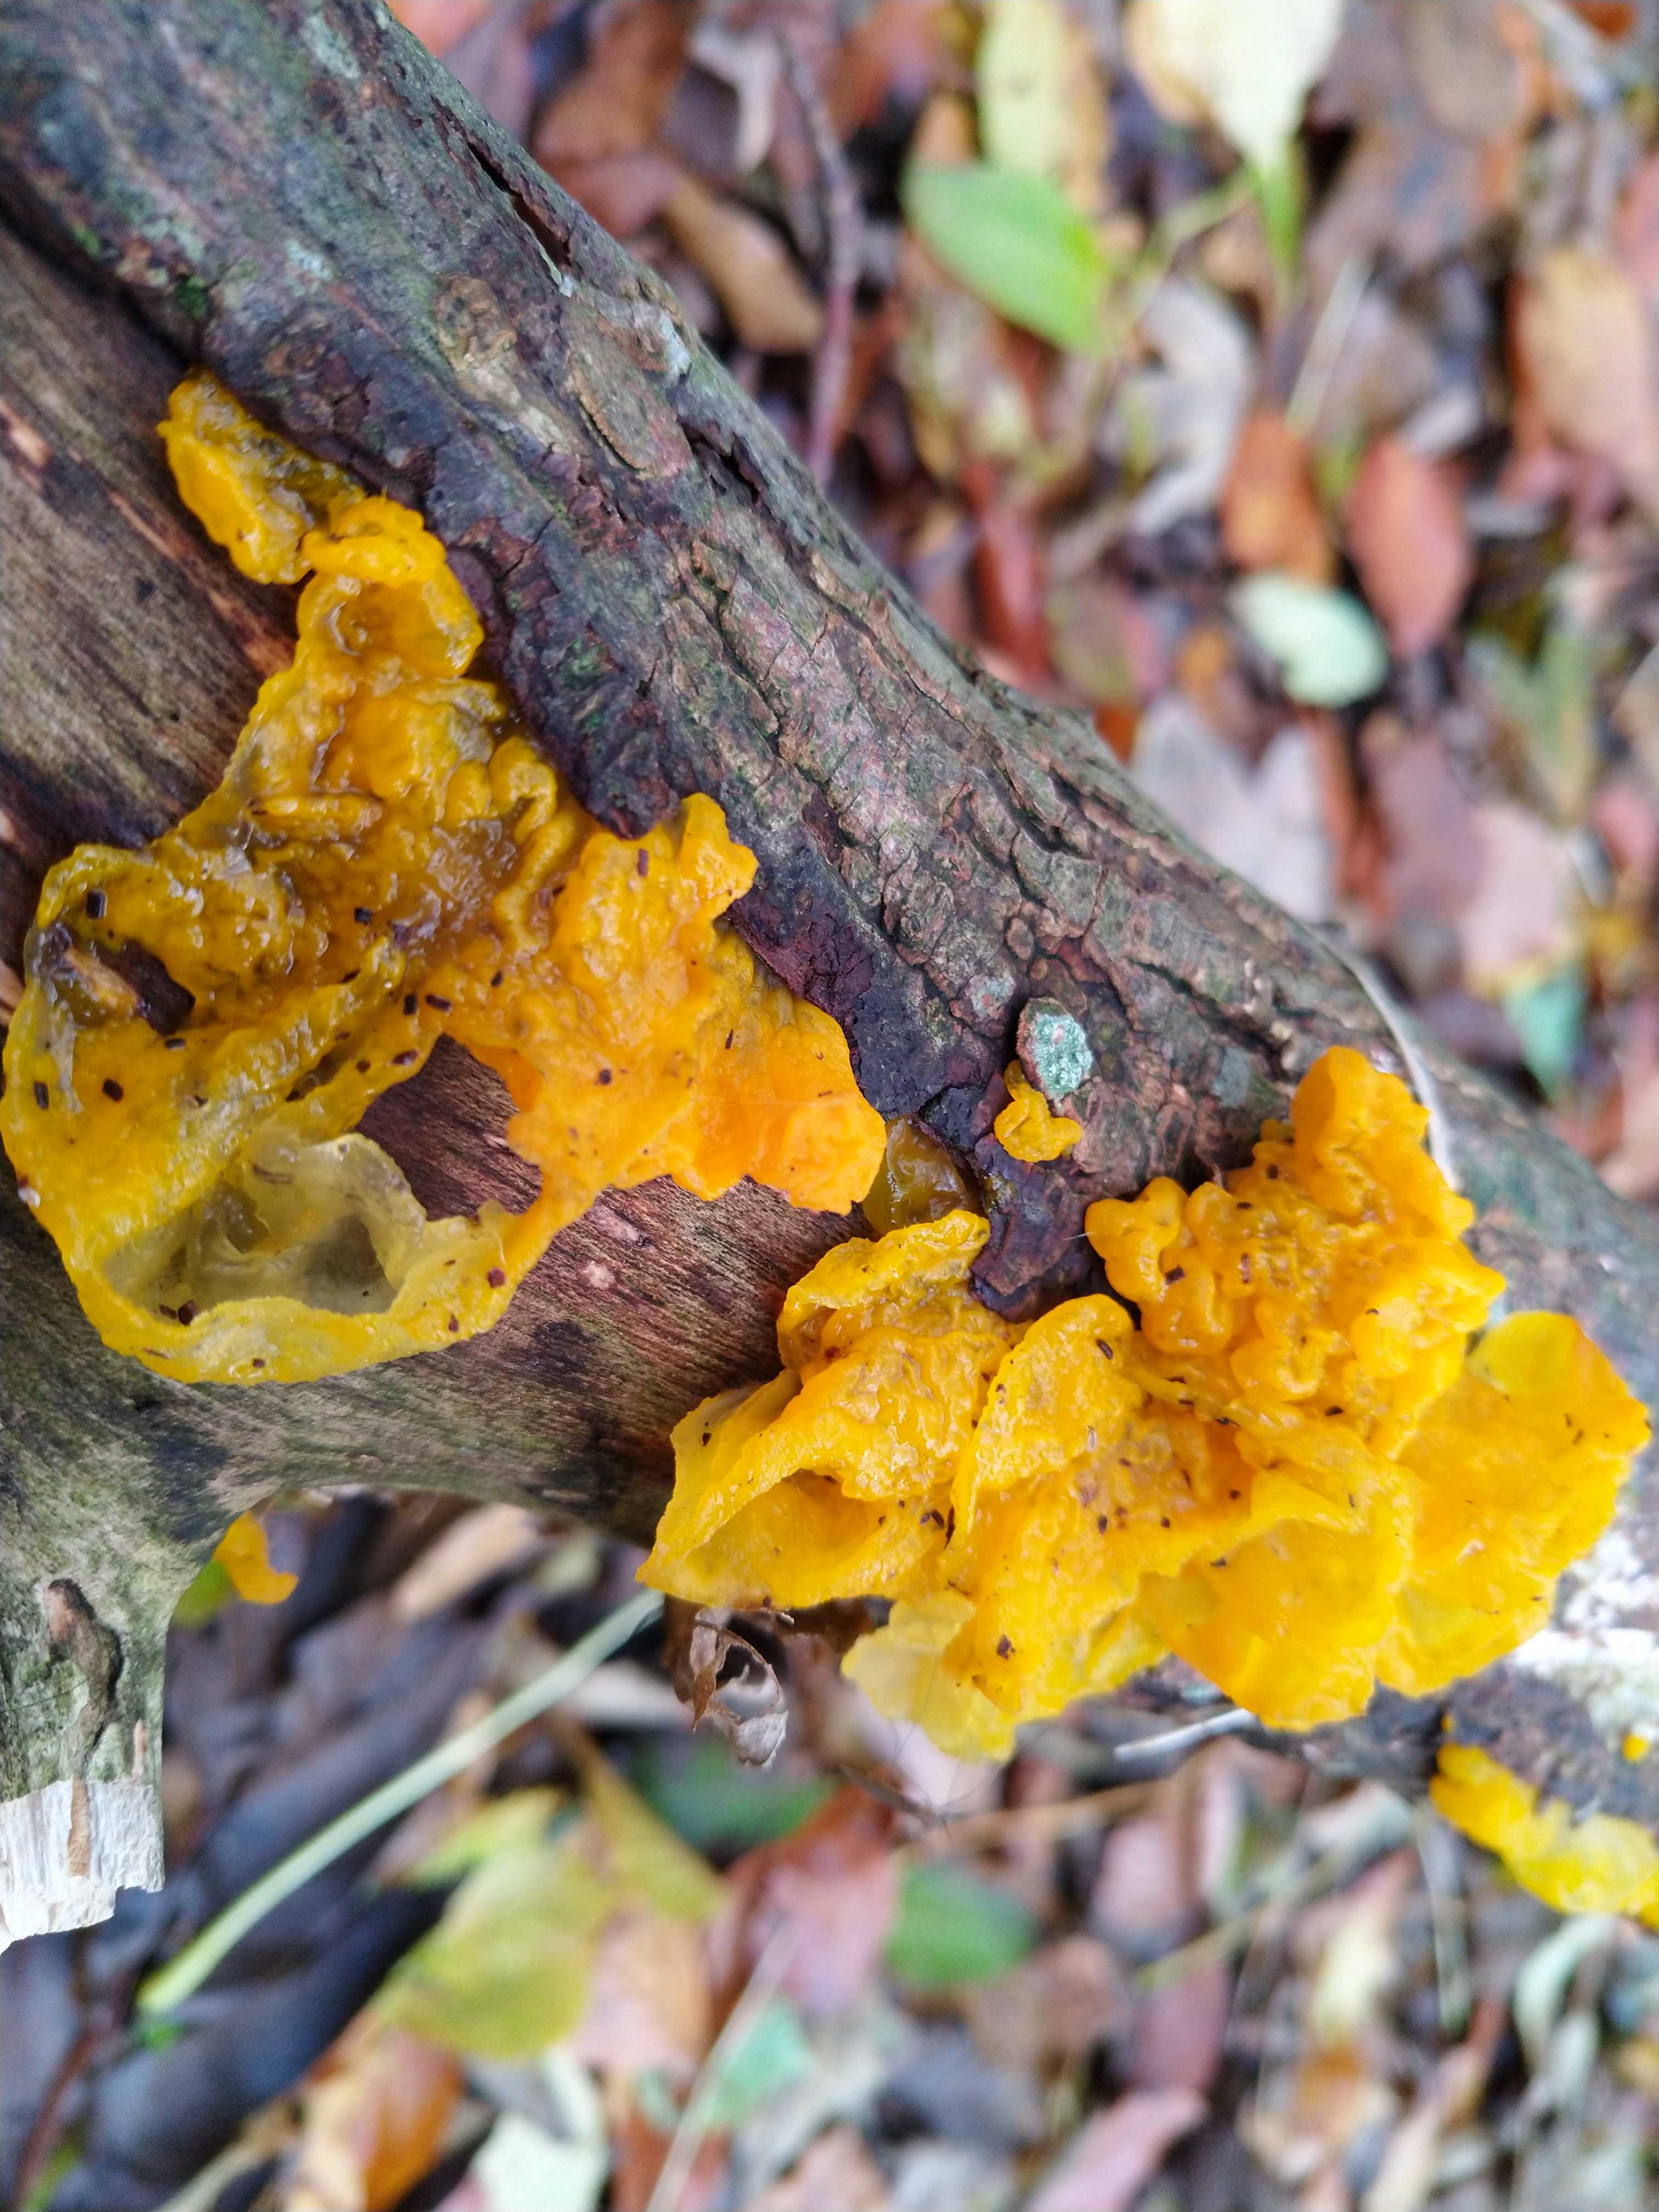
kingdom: Fungi
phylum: Basidiomycota
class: Tremellomycetes
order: Tremellales
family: Tremellaceae
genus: Tremella
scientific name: Tremella mesenterica
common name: gul bævresvamp
